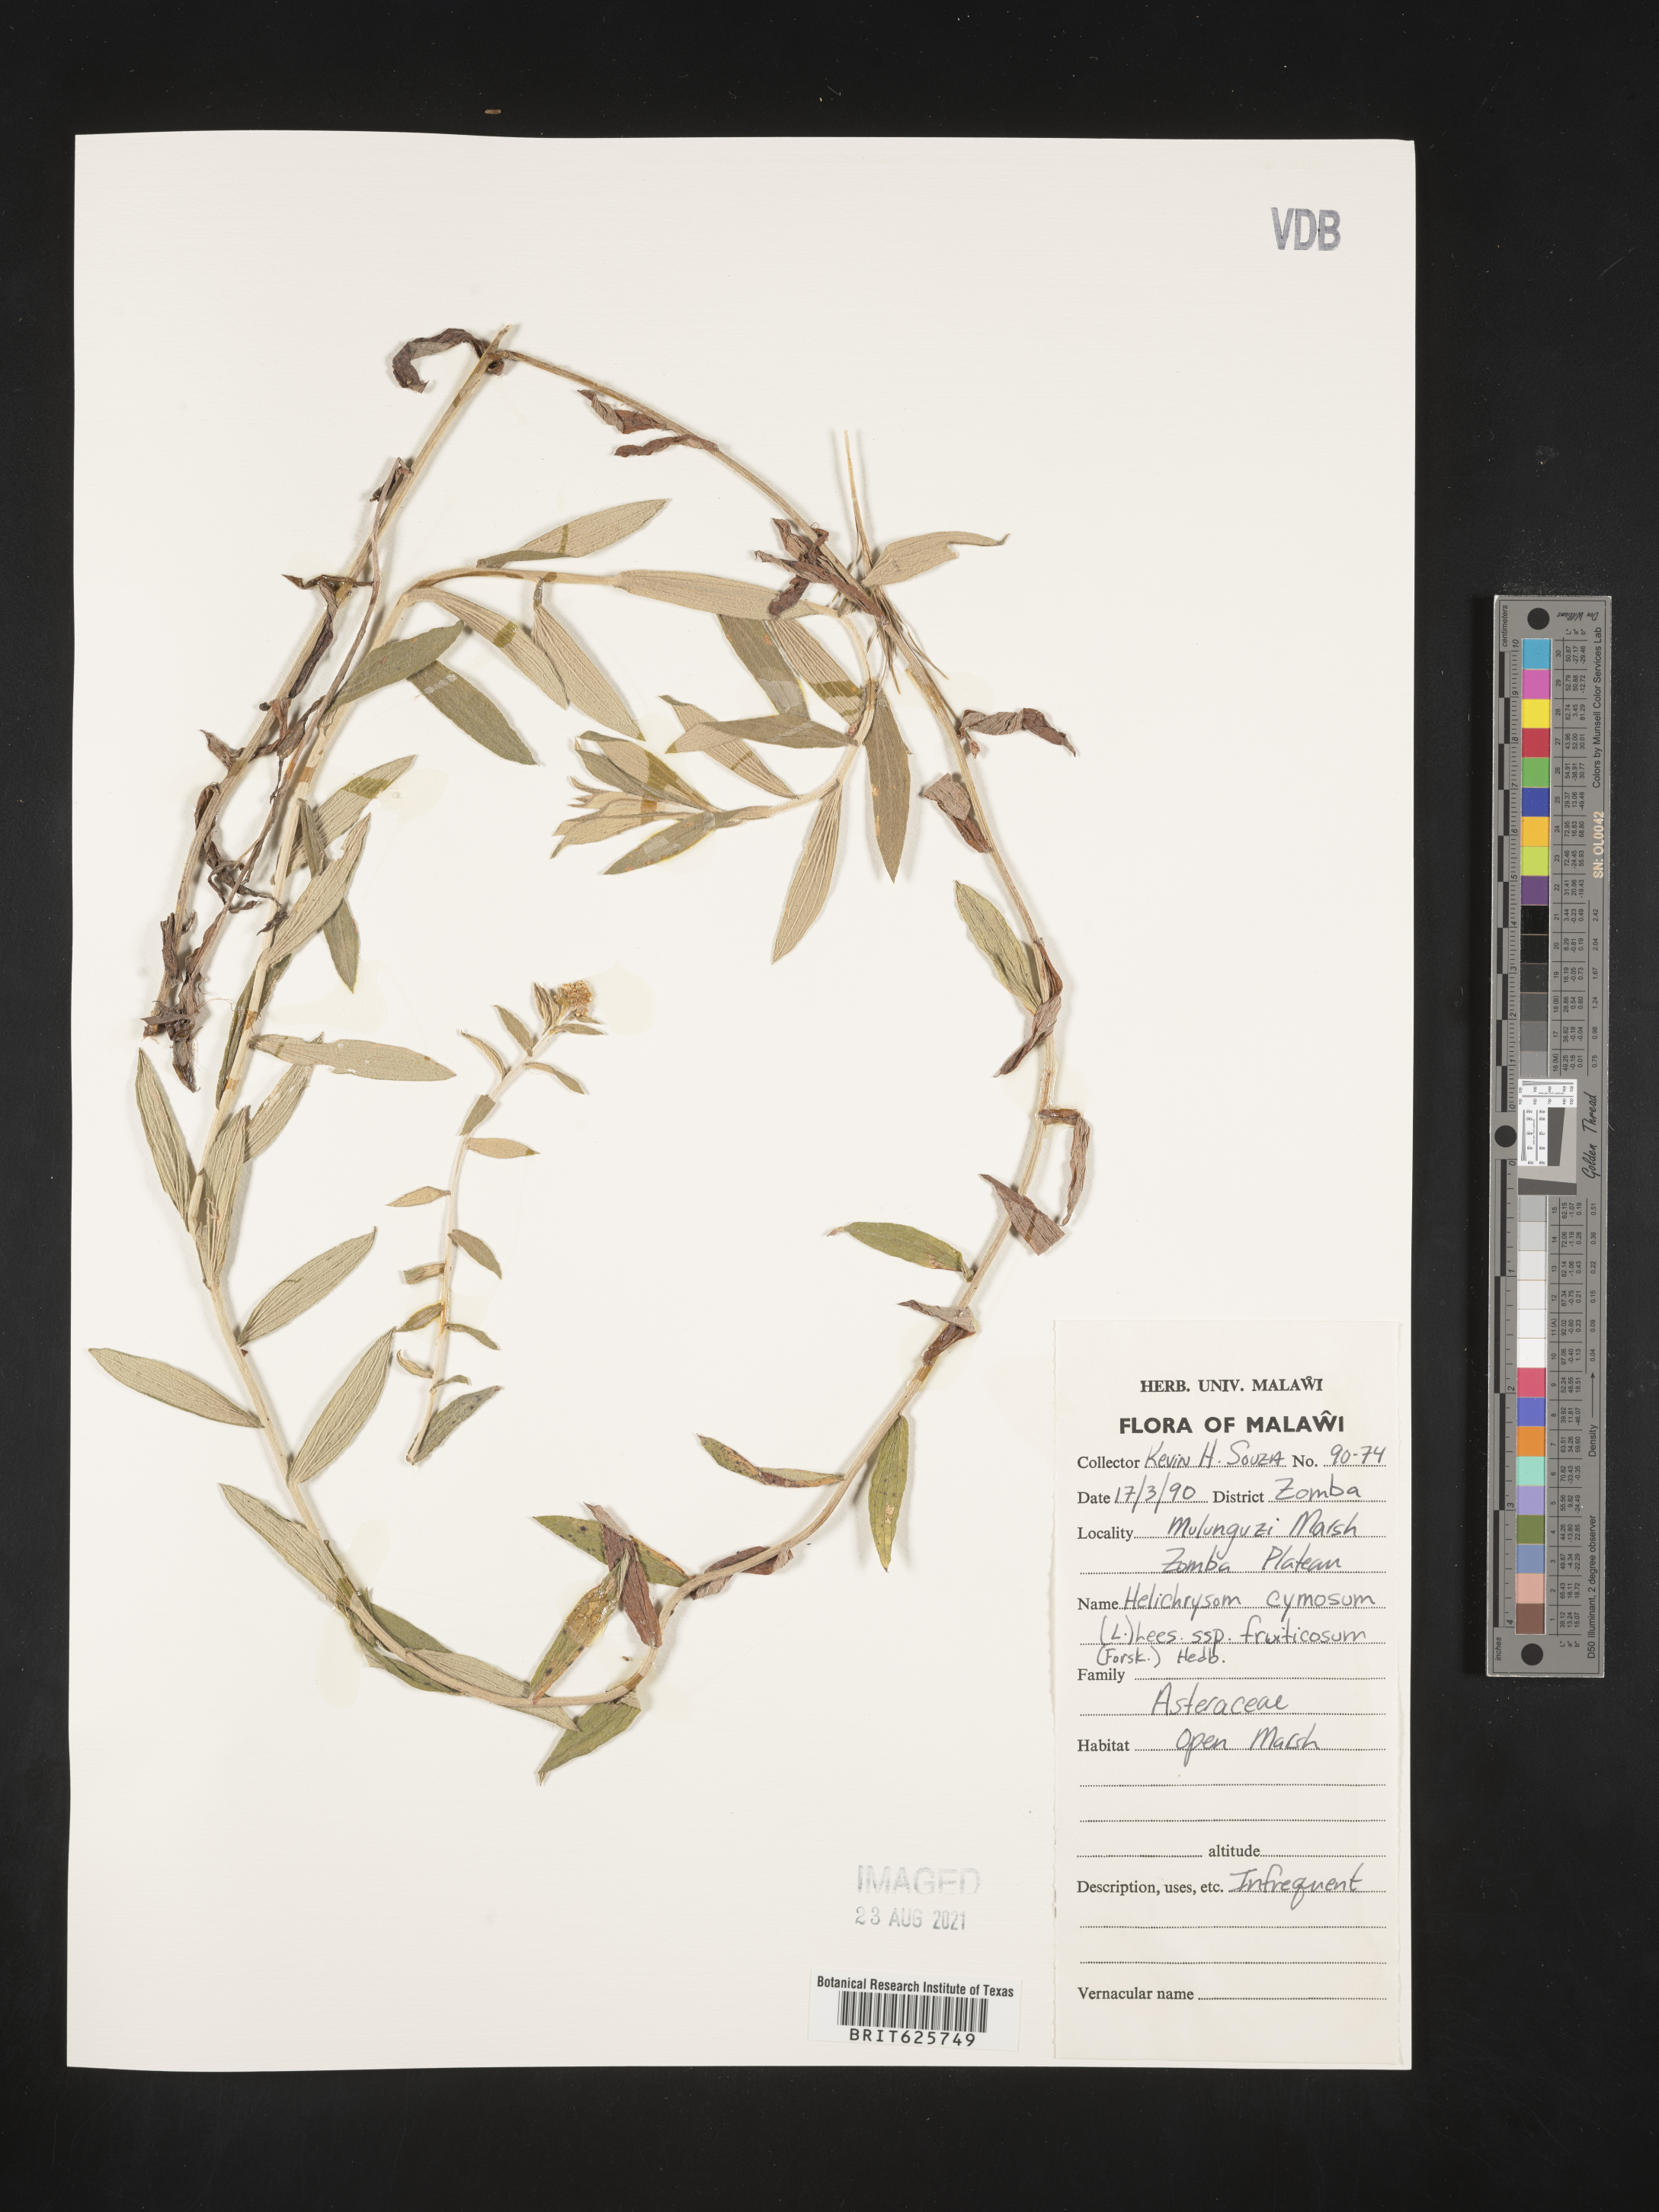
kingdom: Plantae
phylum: Tracheophyta
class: Magnoliopsida
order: Asterales
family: Asteraceae
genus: Helichrysum
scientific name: Helichrysum forskahlii
